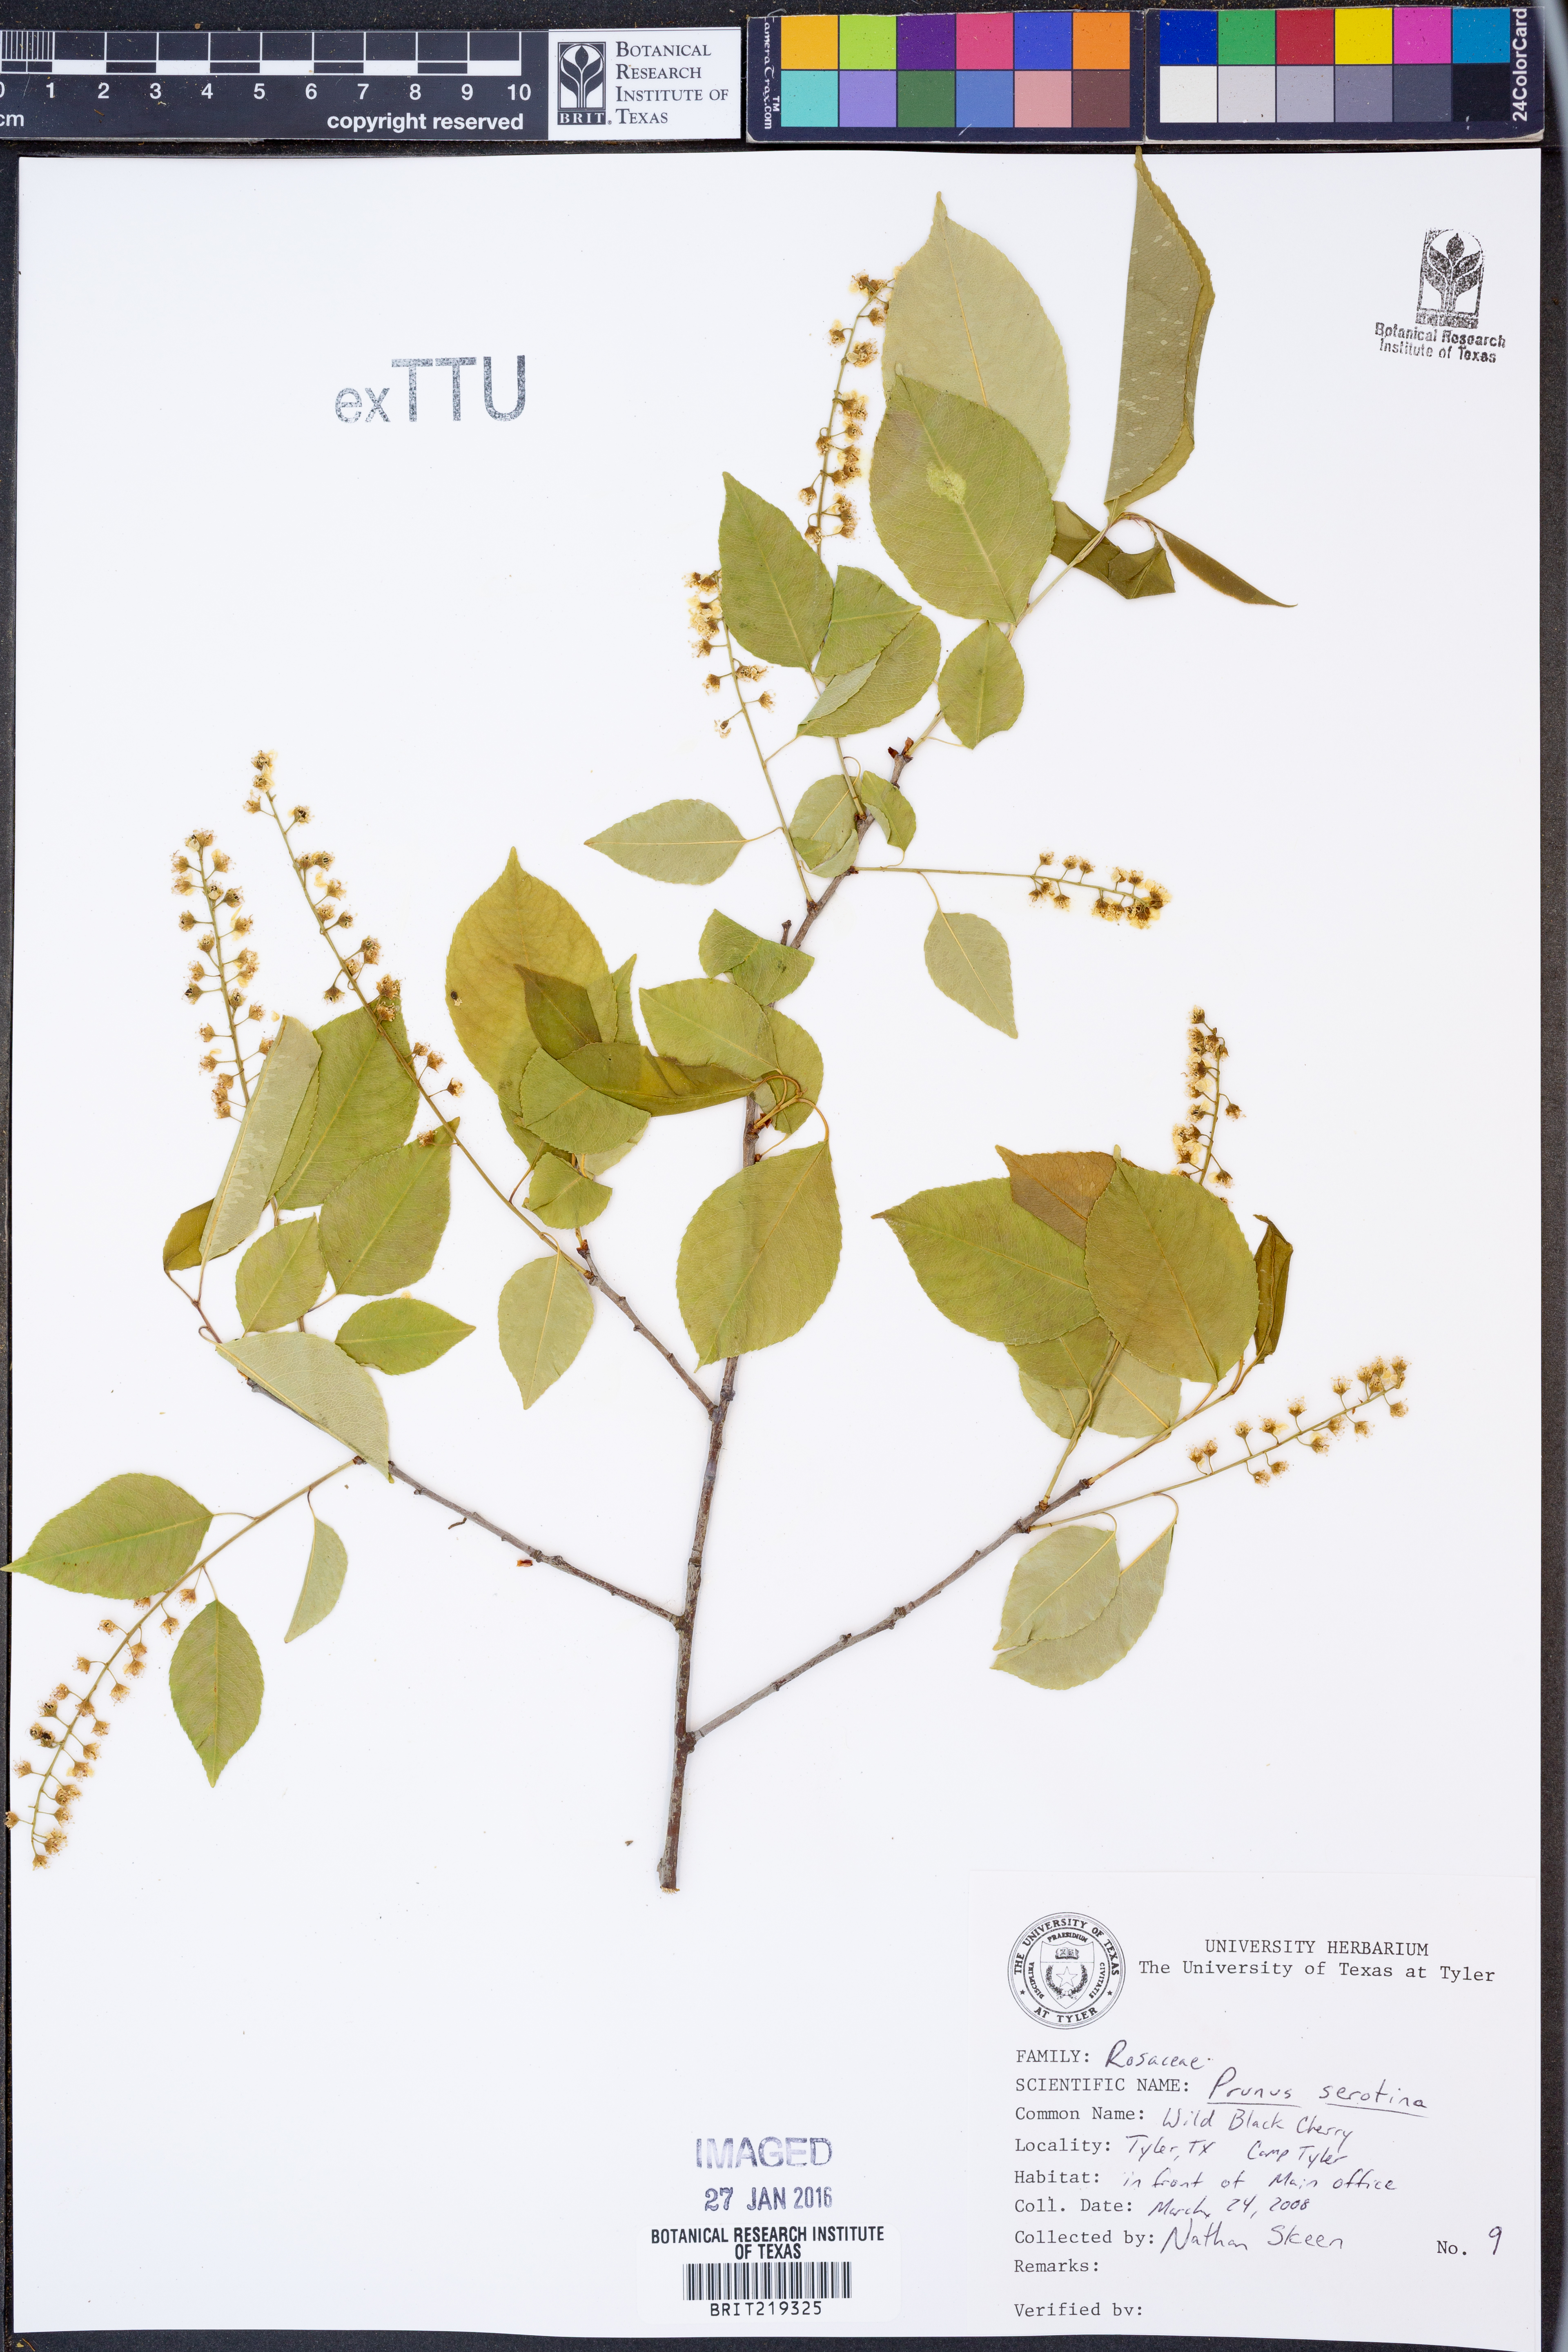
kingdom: Plantae
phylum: Tracheophyta
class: Magnoliopsida
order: Rosales
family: Rosaceae
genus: Prunus
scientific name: Prunus serotina
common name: Black cherry
